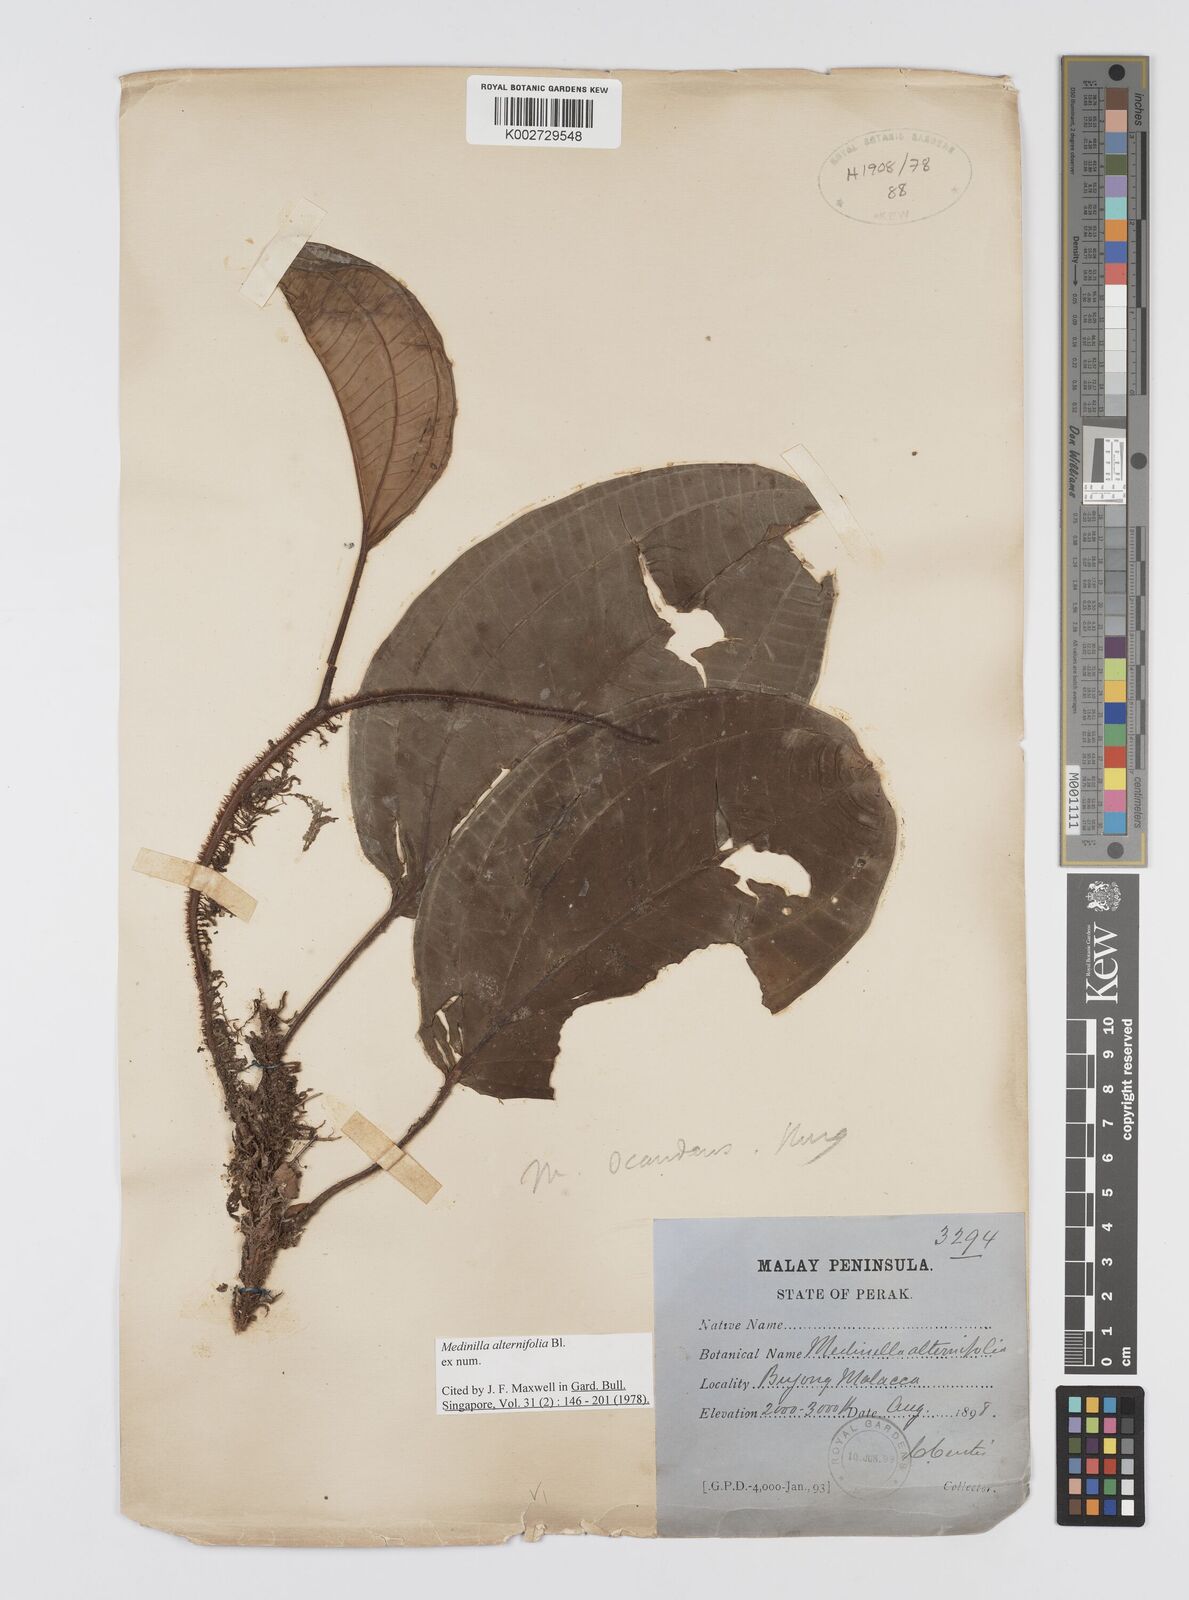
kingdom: Plantae
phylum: Tracheophyta
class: Magnoliopsida
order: Myrtales
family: Melastomataceae
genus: Heteroblemma
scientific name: Heteroblemma alternifolium
